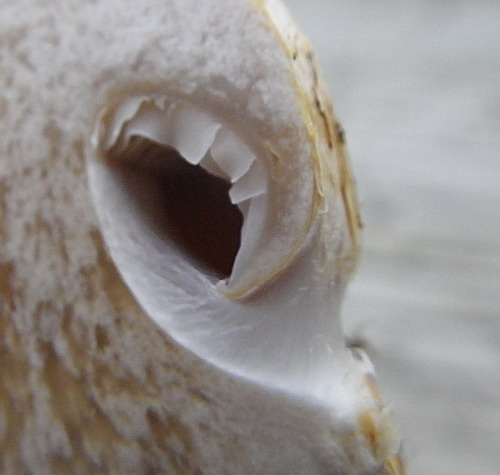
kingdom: Fungi
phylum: Basidiomycota
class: Agaricomycetes
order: Agaricales
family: Cortinariaceae
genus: Phlegmacium
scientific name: Phlegmacium xantho-ochraceum
